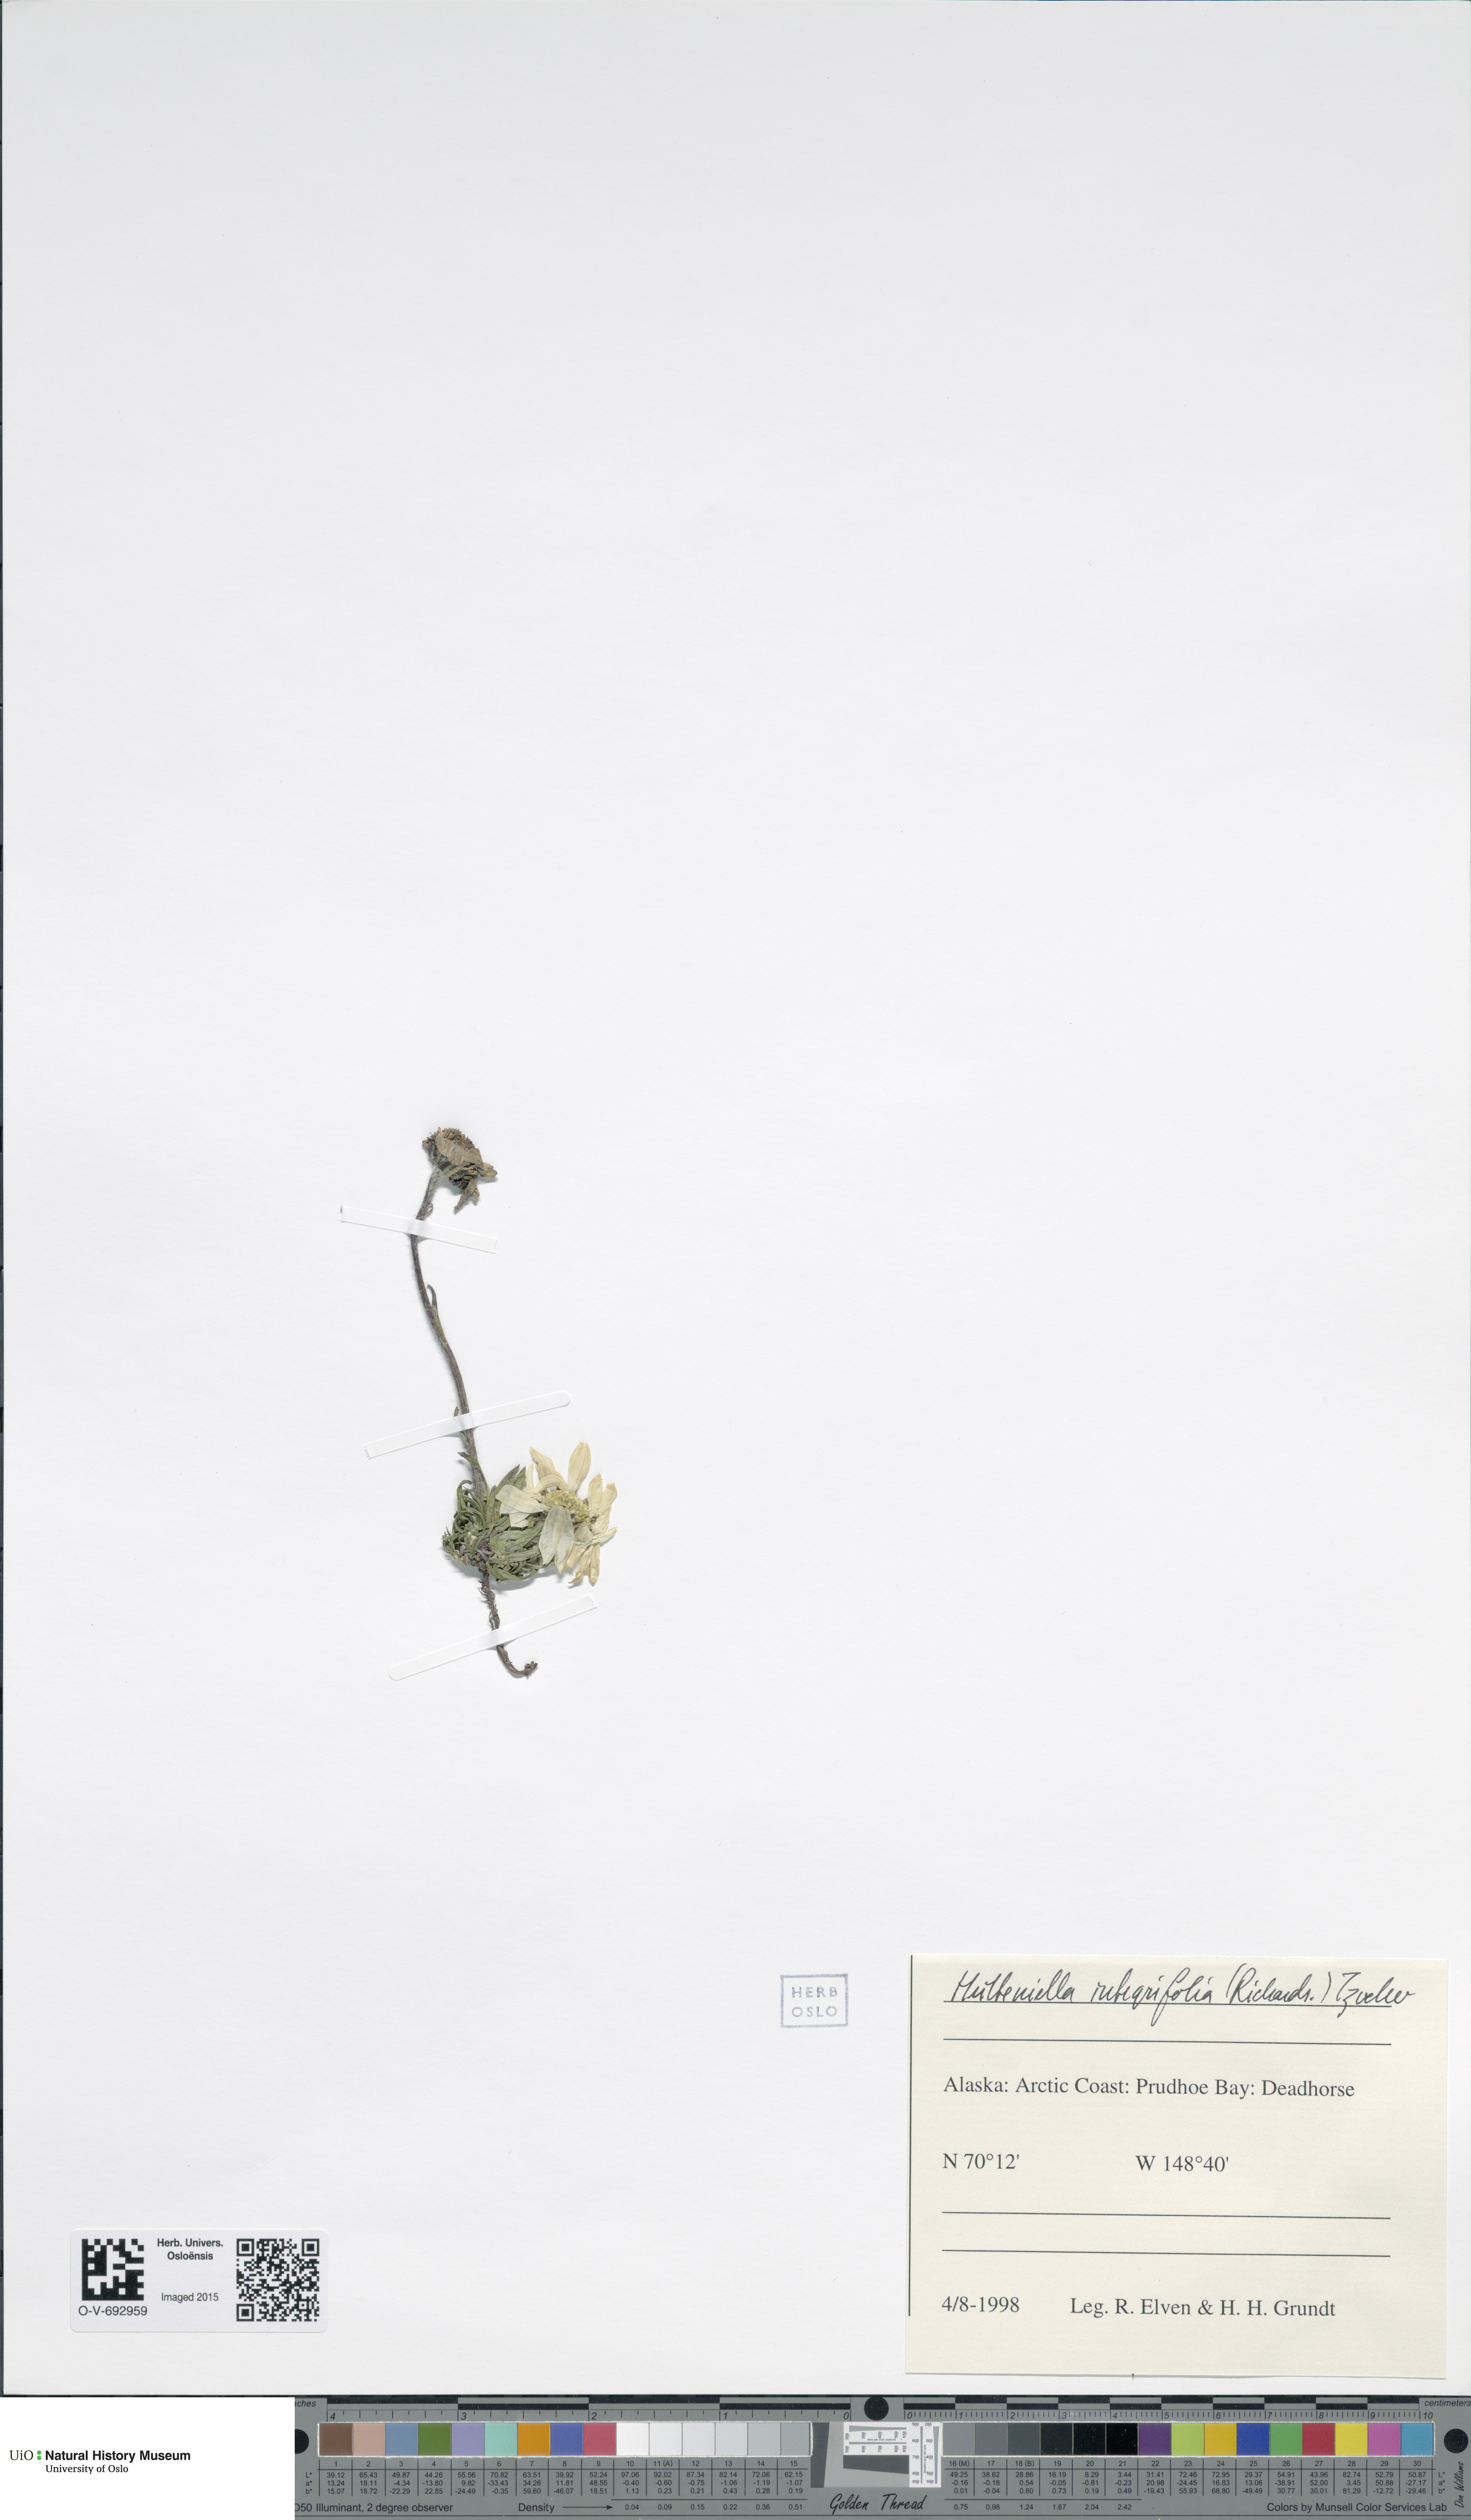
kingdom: Plantae
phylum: Tracheophyta
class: Magnoliopsida
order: Asterales
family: Asteraceae
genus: Arctanthemum
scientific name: Arctanthemum integrifolium
